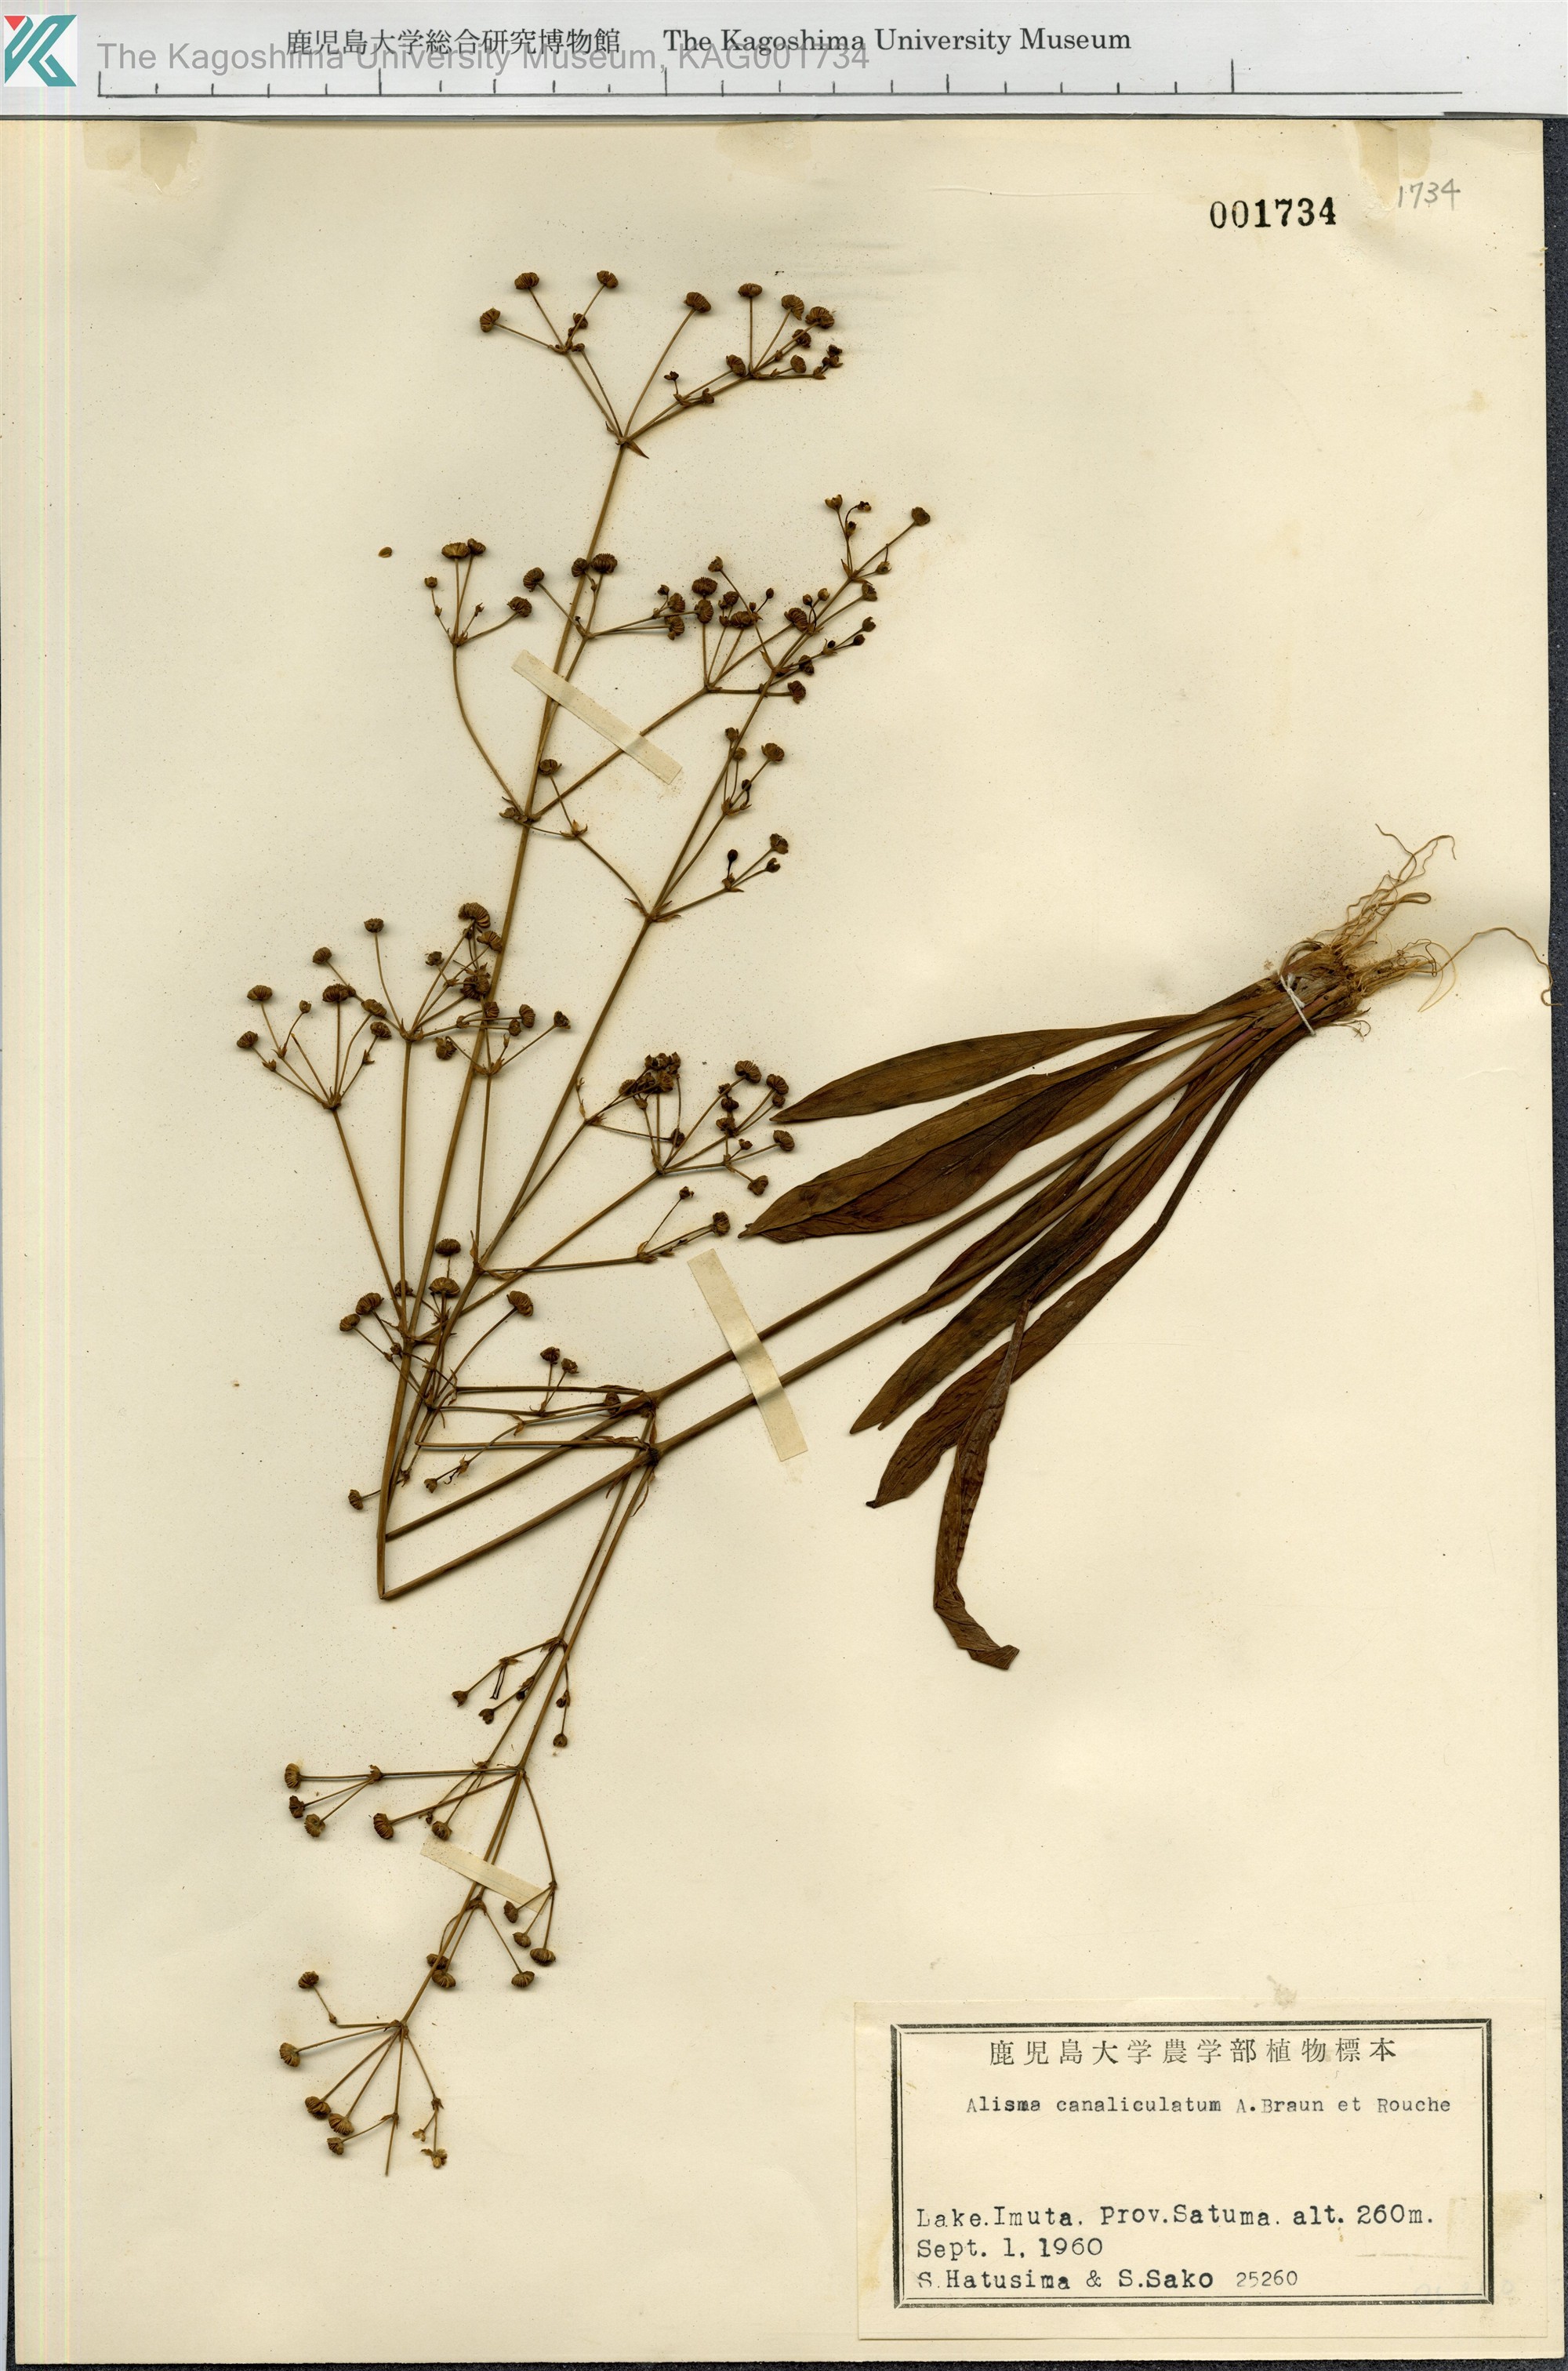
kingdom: Plantae
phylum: Tracheophyta
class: Liliopsida
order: Alismatales
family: Alismataceae
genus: Alisma
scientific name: Alisma canaliculatum
